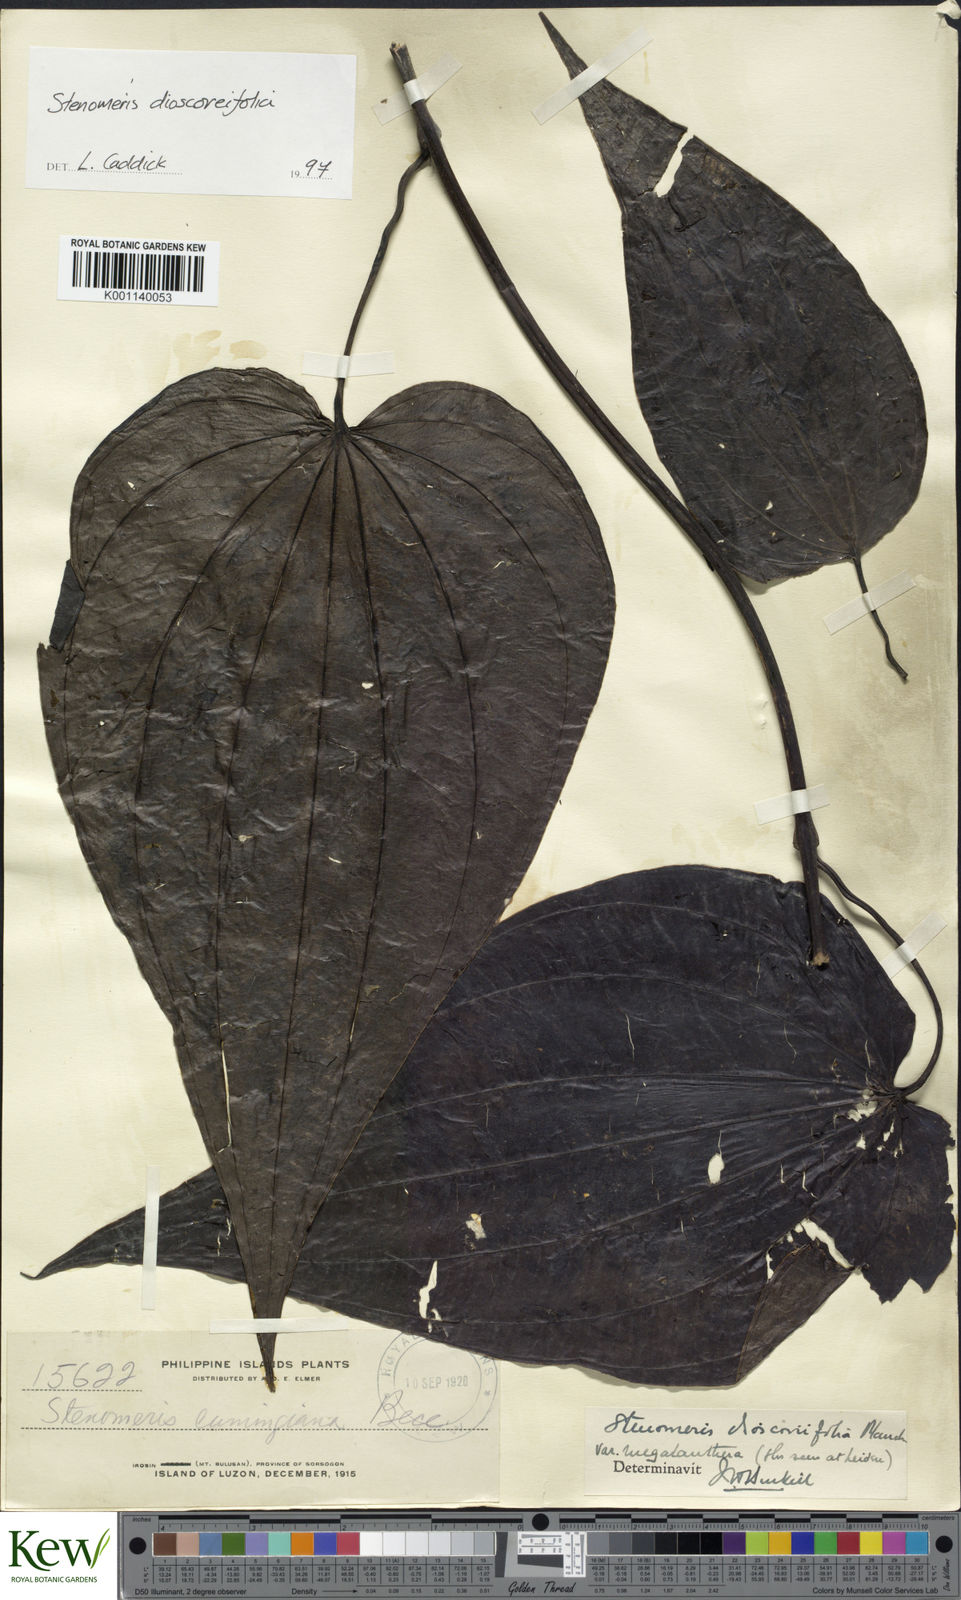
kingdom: Plantae
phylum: Tracheophyta
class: Liliopsida
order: Dioscoreales
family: Dioscoreaceae
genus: Stenomeris
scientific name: Stenomeris dioscoreifolia
